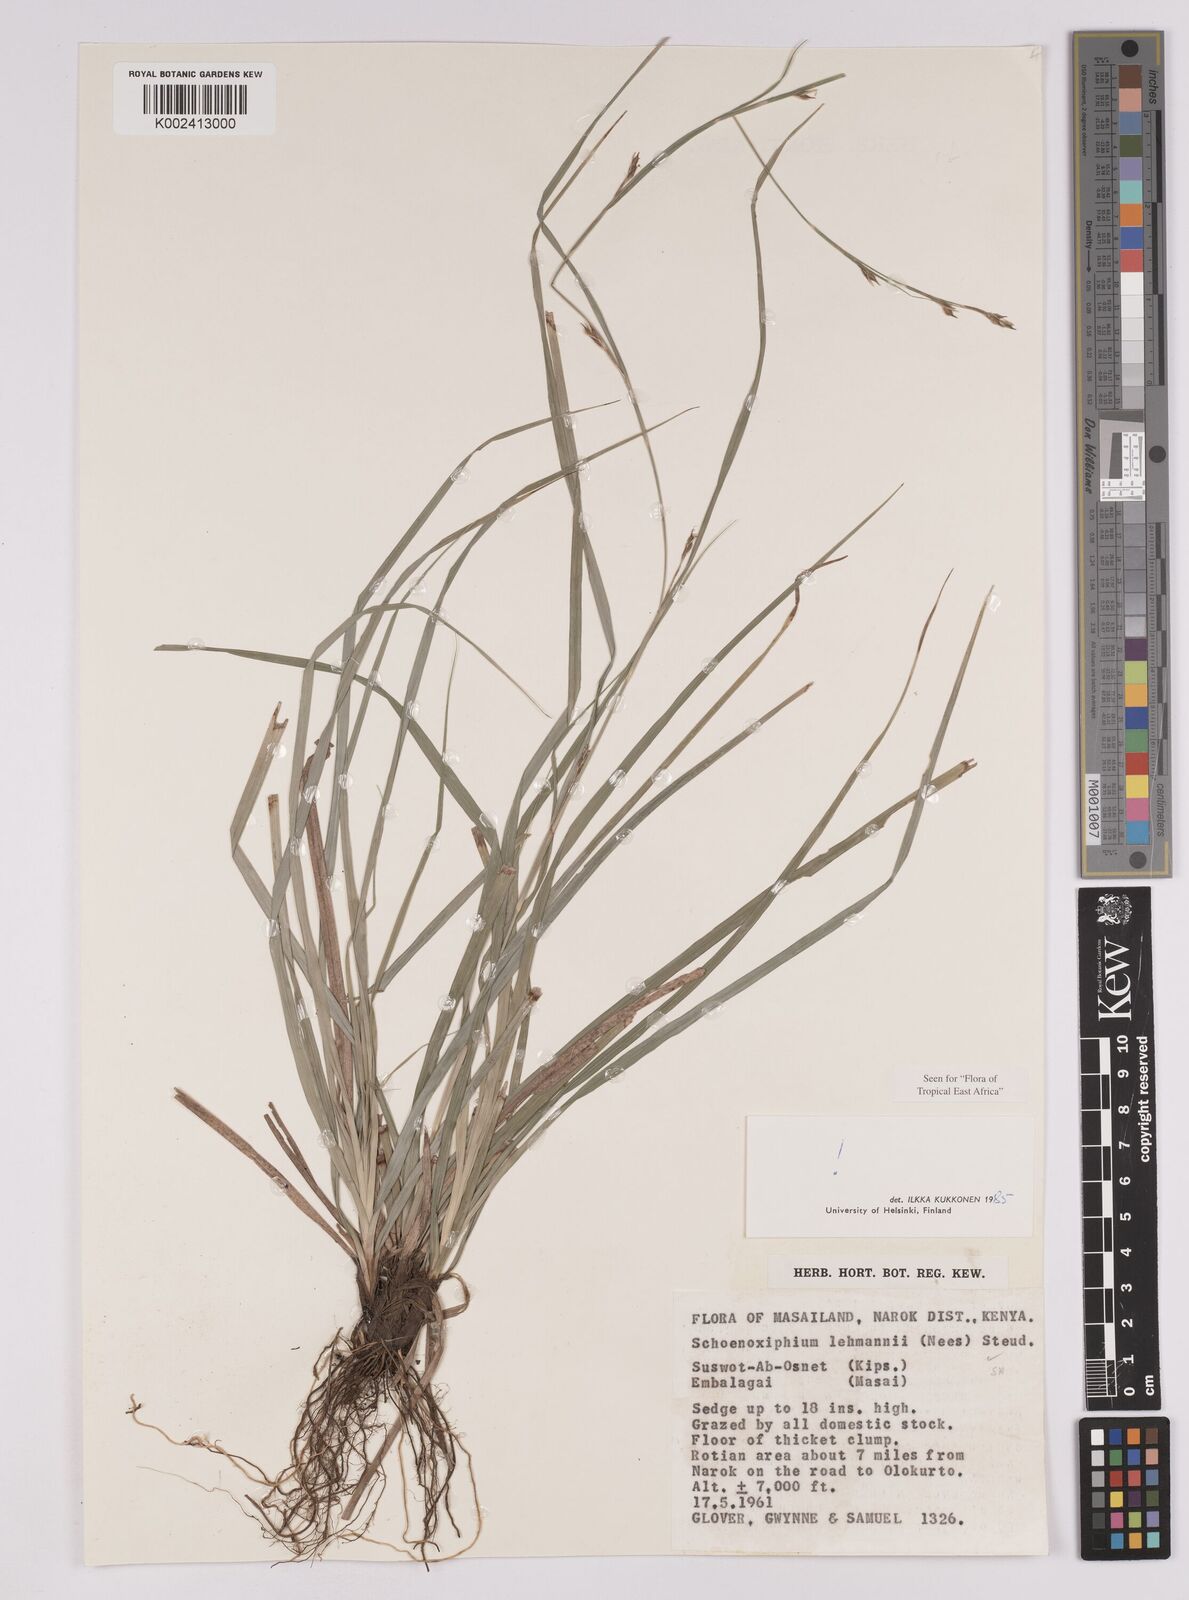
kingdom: Plantae
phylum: Tracheophyta
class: Liliopsida
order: Poales
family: Cyperaceae
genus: Carex
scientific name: Carex uhligii
